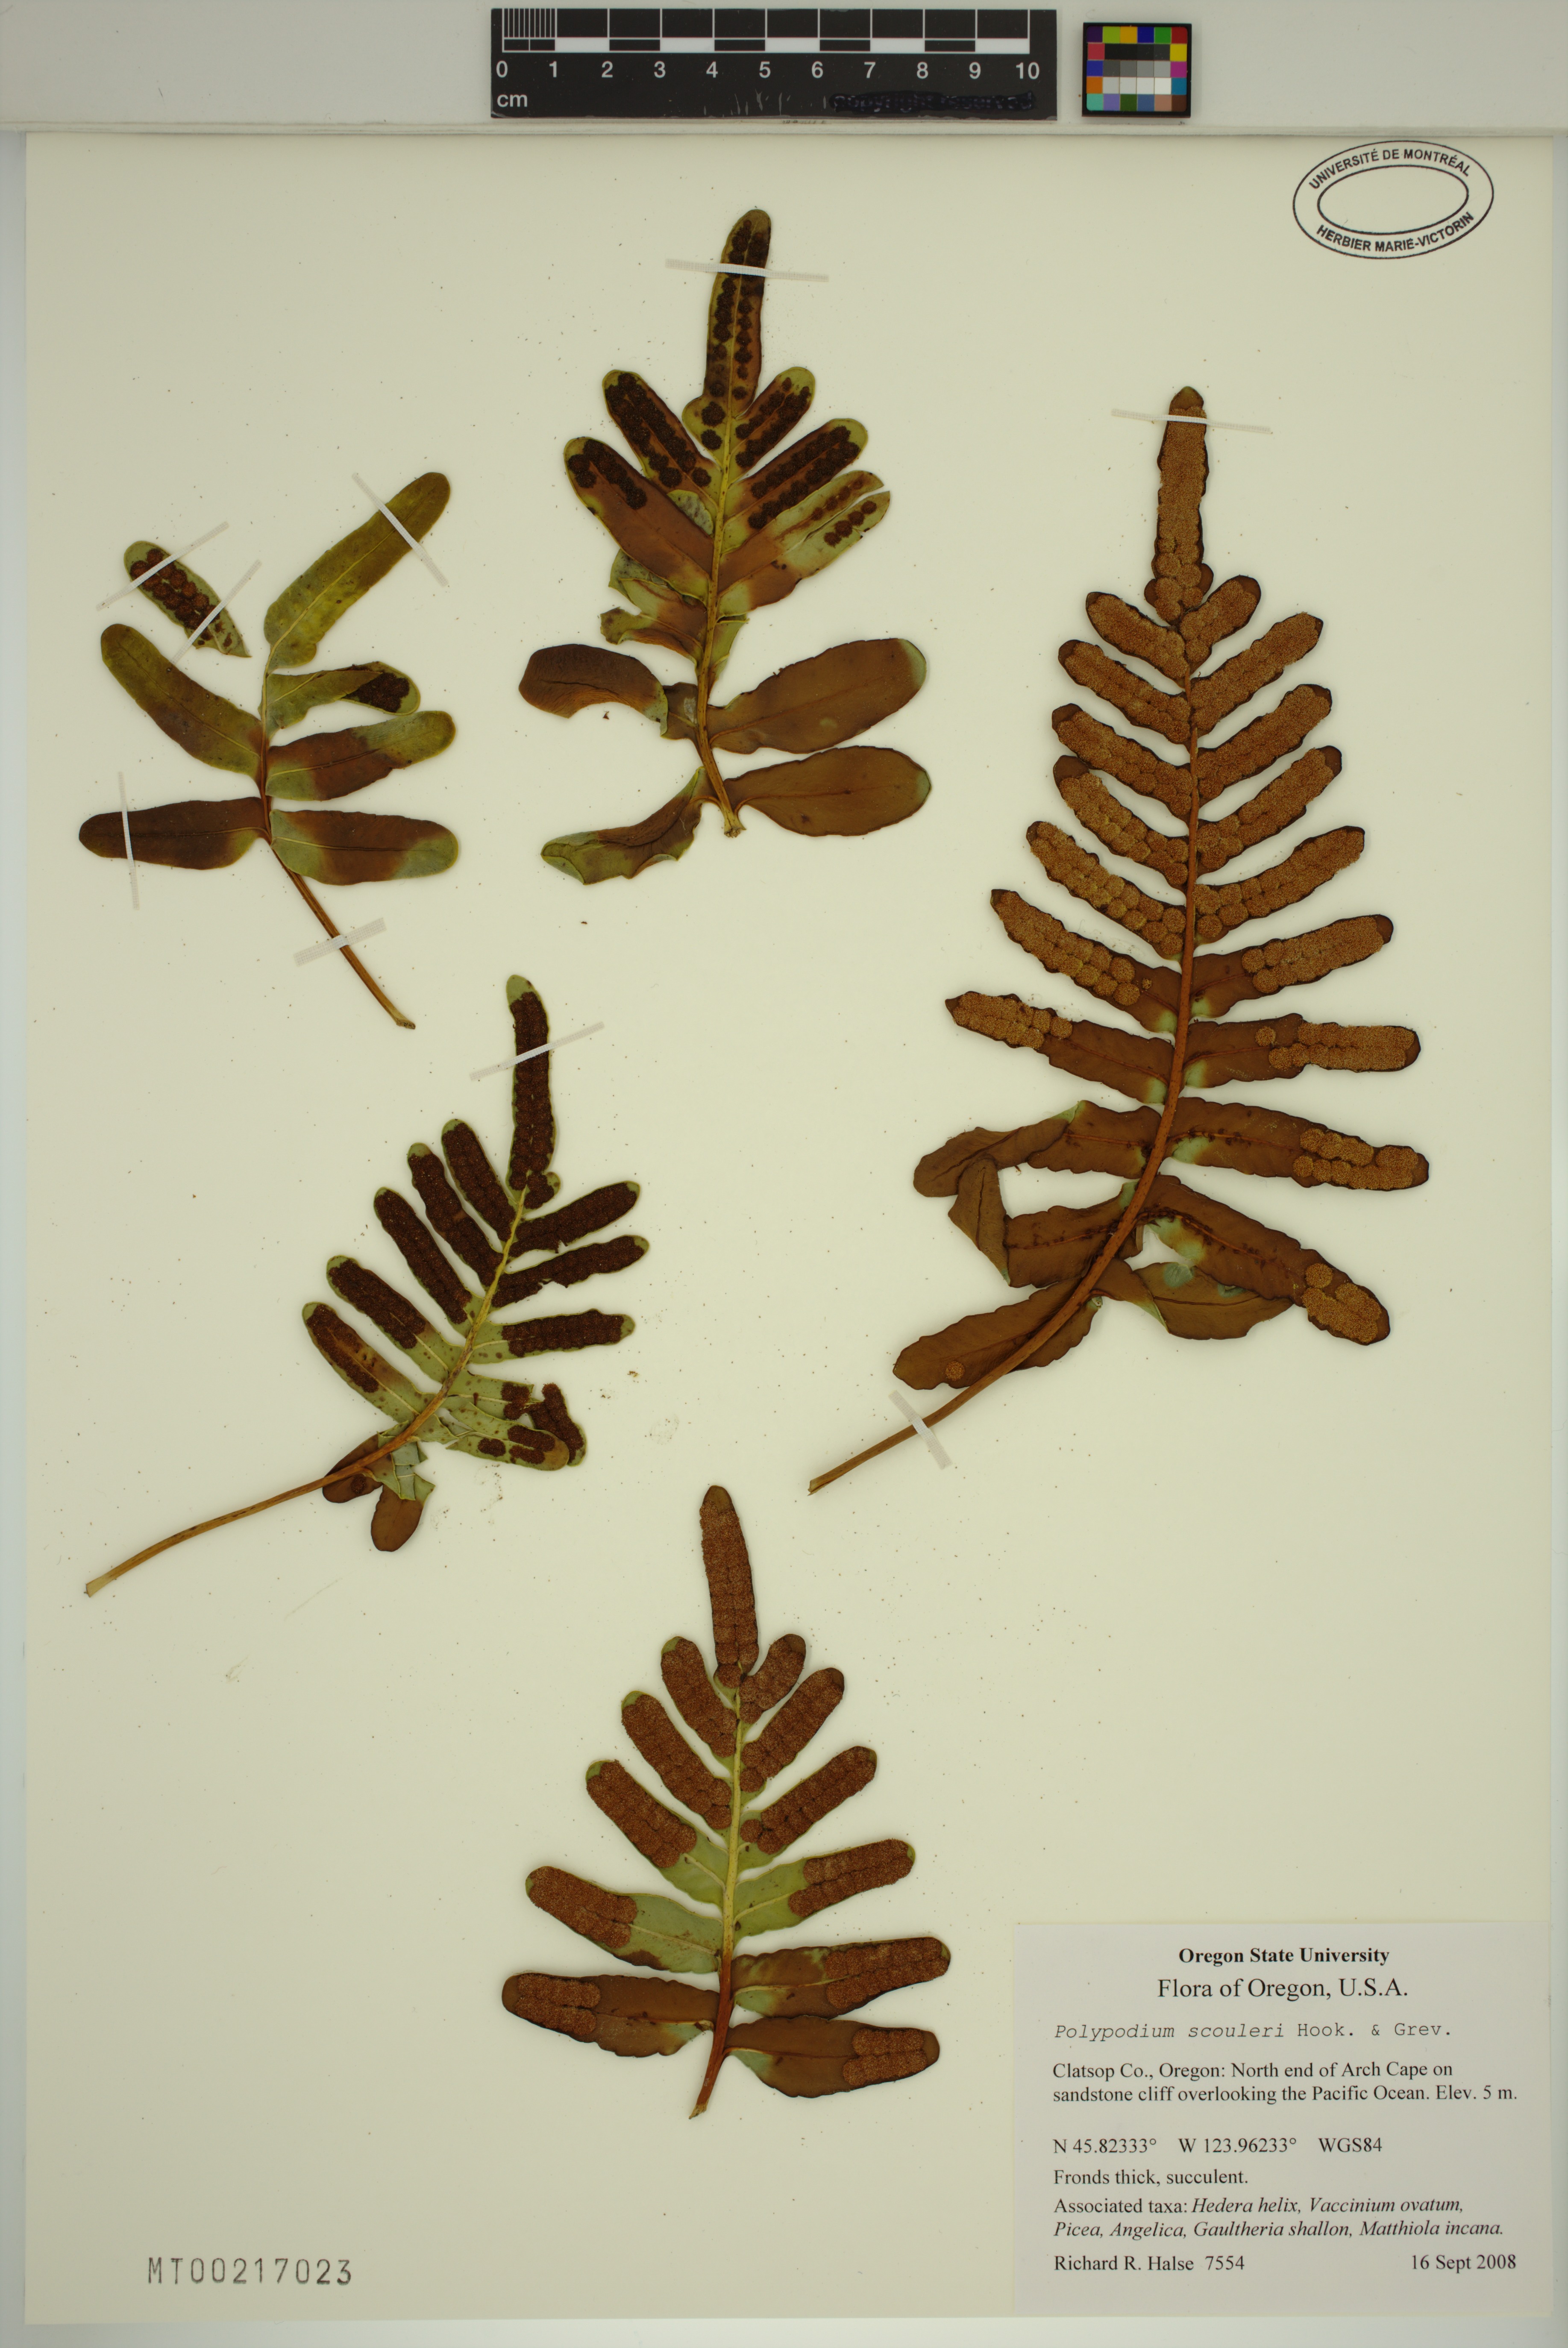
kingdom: Plantae
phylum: Tracheophyta
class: Polypodiopsida
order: Polypodiales
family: Polypodiaceae
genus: Polypodium
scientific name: Polypodium scouleri
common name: Scouler's polypody
